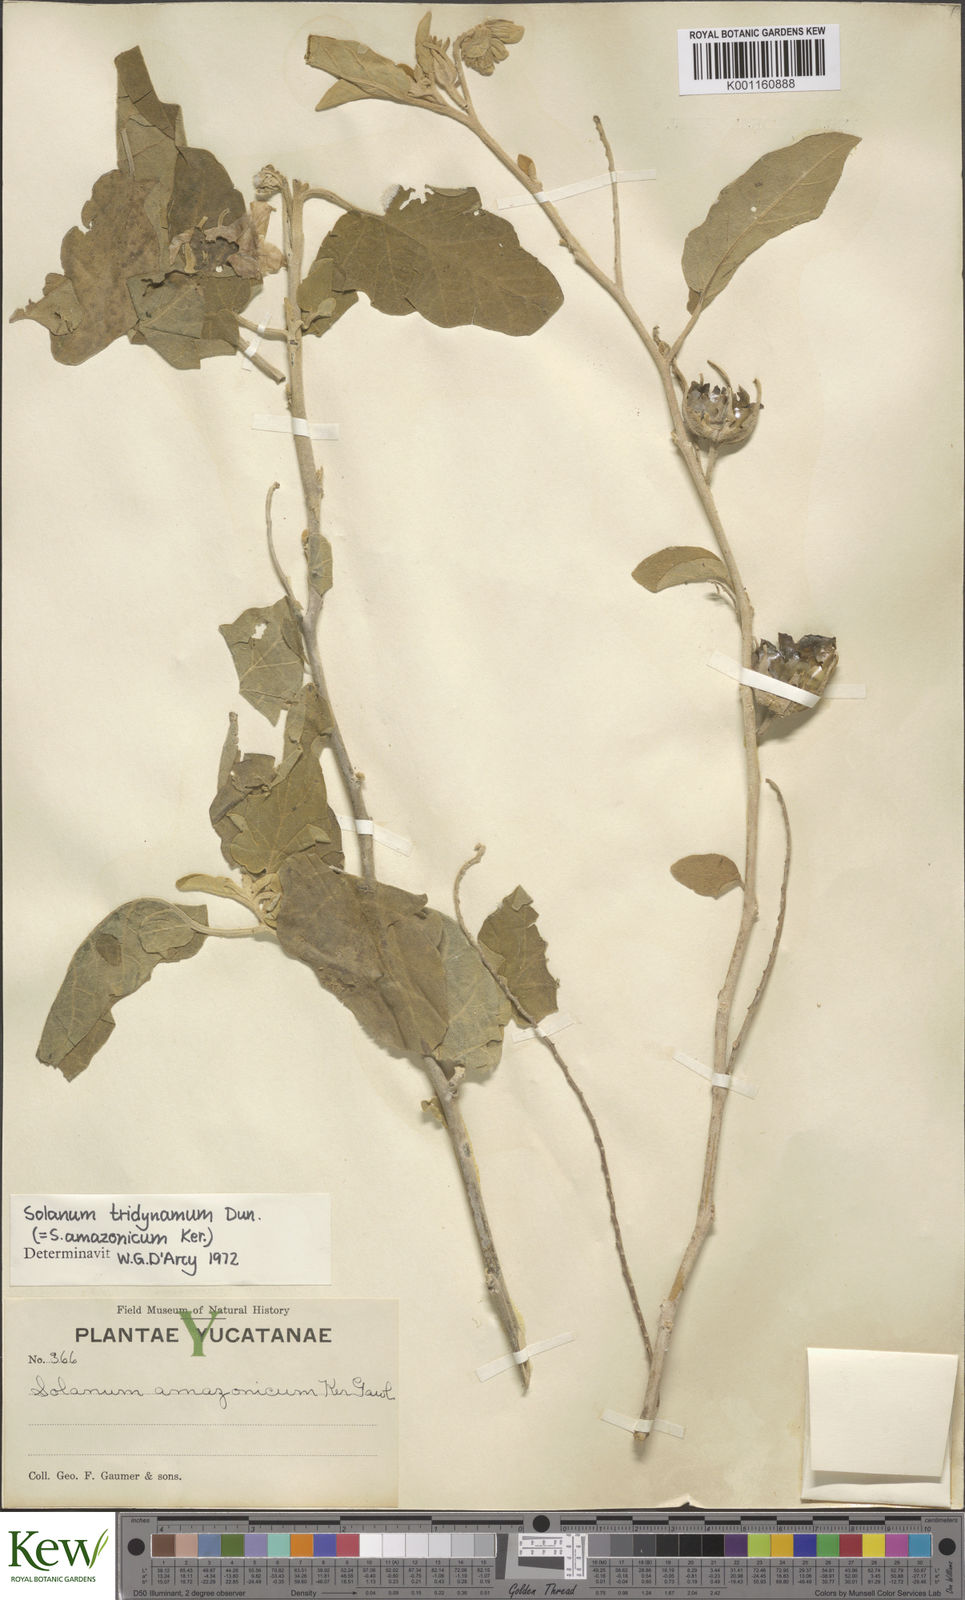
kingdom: Plantae
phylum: Tracheophyta
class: Magnoliopsida
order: Solanales
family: Solanaceae
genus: Solanum
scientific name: Solanum houstonii
